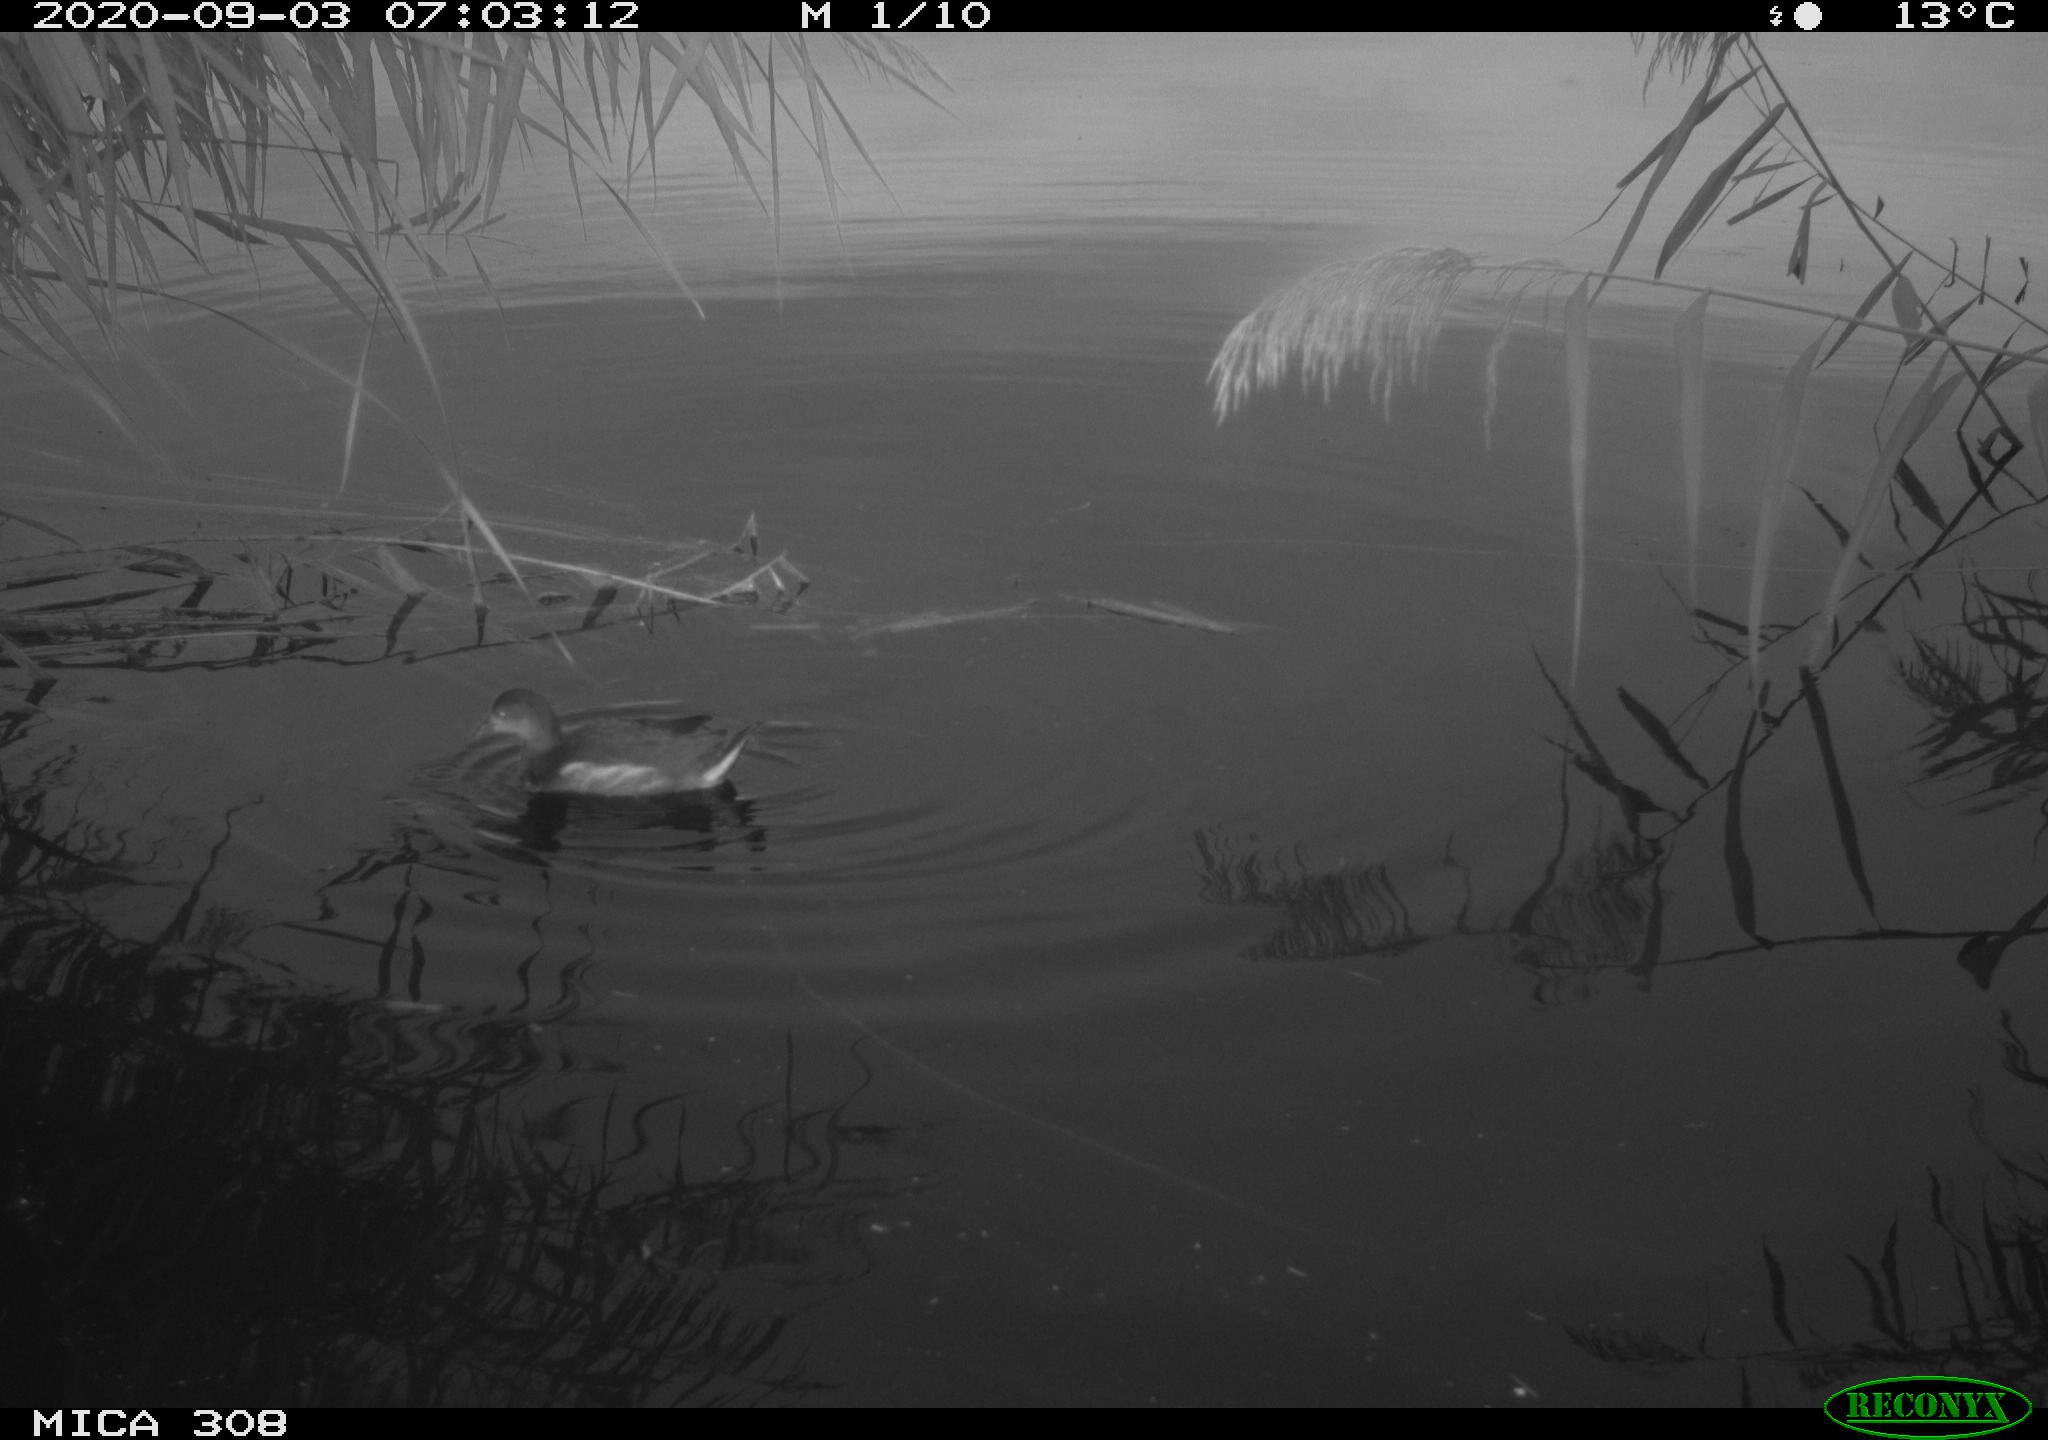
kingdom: Animalia
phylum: Chordata
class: Aves
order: Gruiformes
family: Rallidae
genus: Gallinula
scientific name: Gallinula chloropus
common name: Common moorhen
